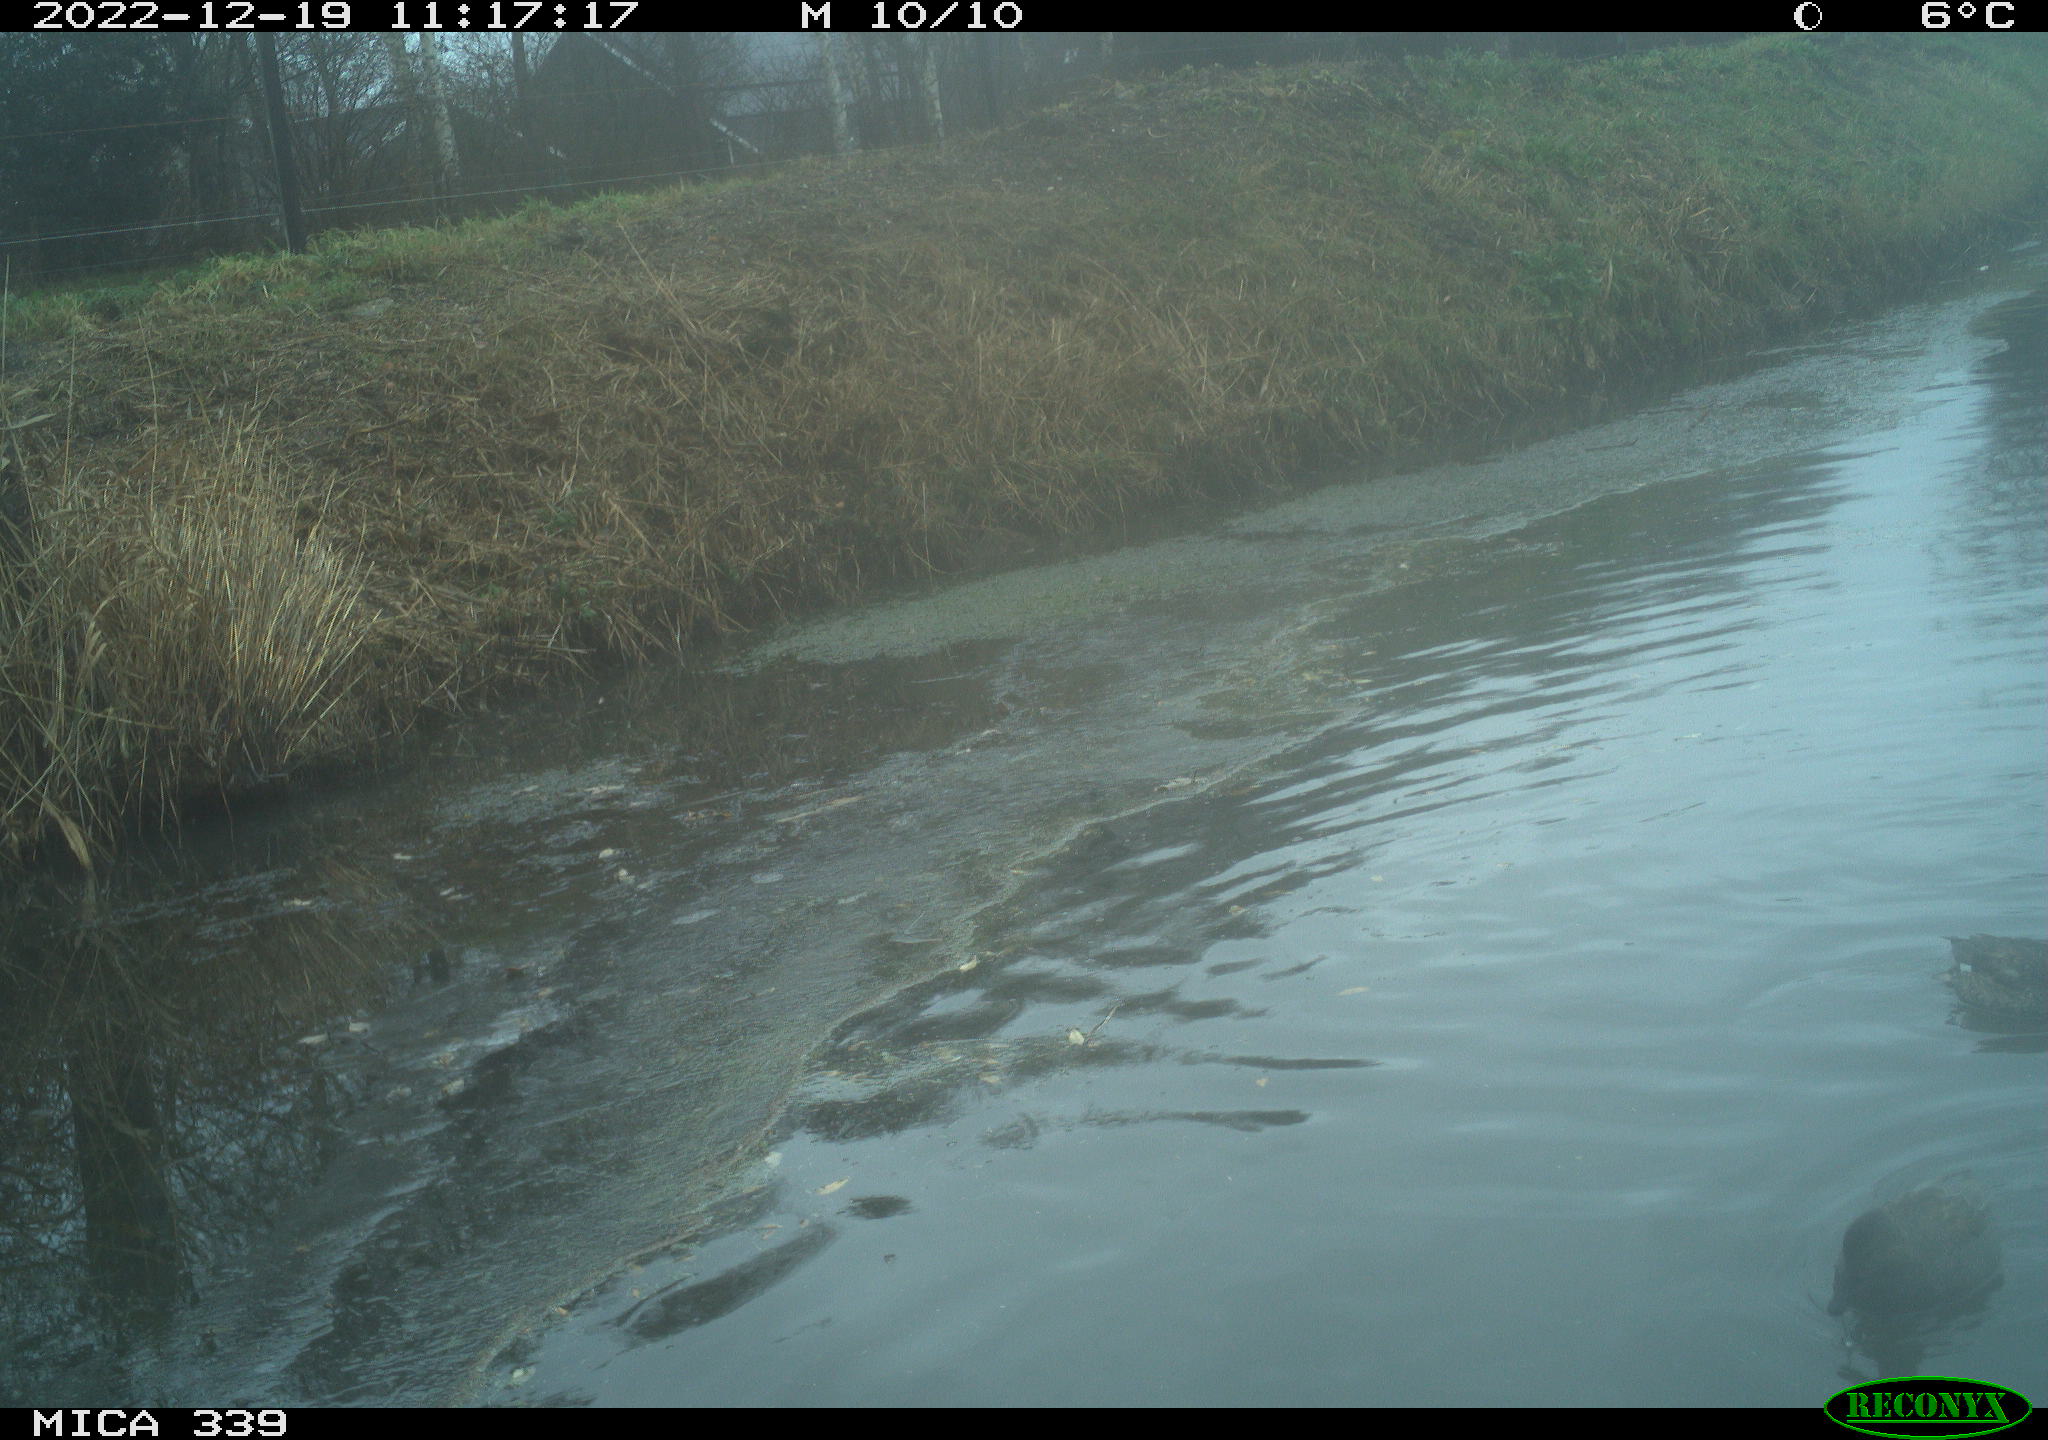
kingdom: Animalia
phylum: Chordata
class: Aves
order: Anseriformes
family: Anatidae
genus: Anas
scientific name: Anas
